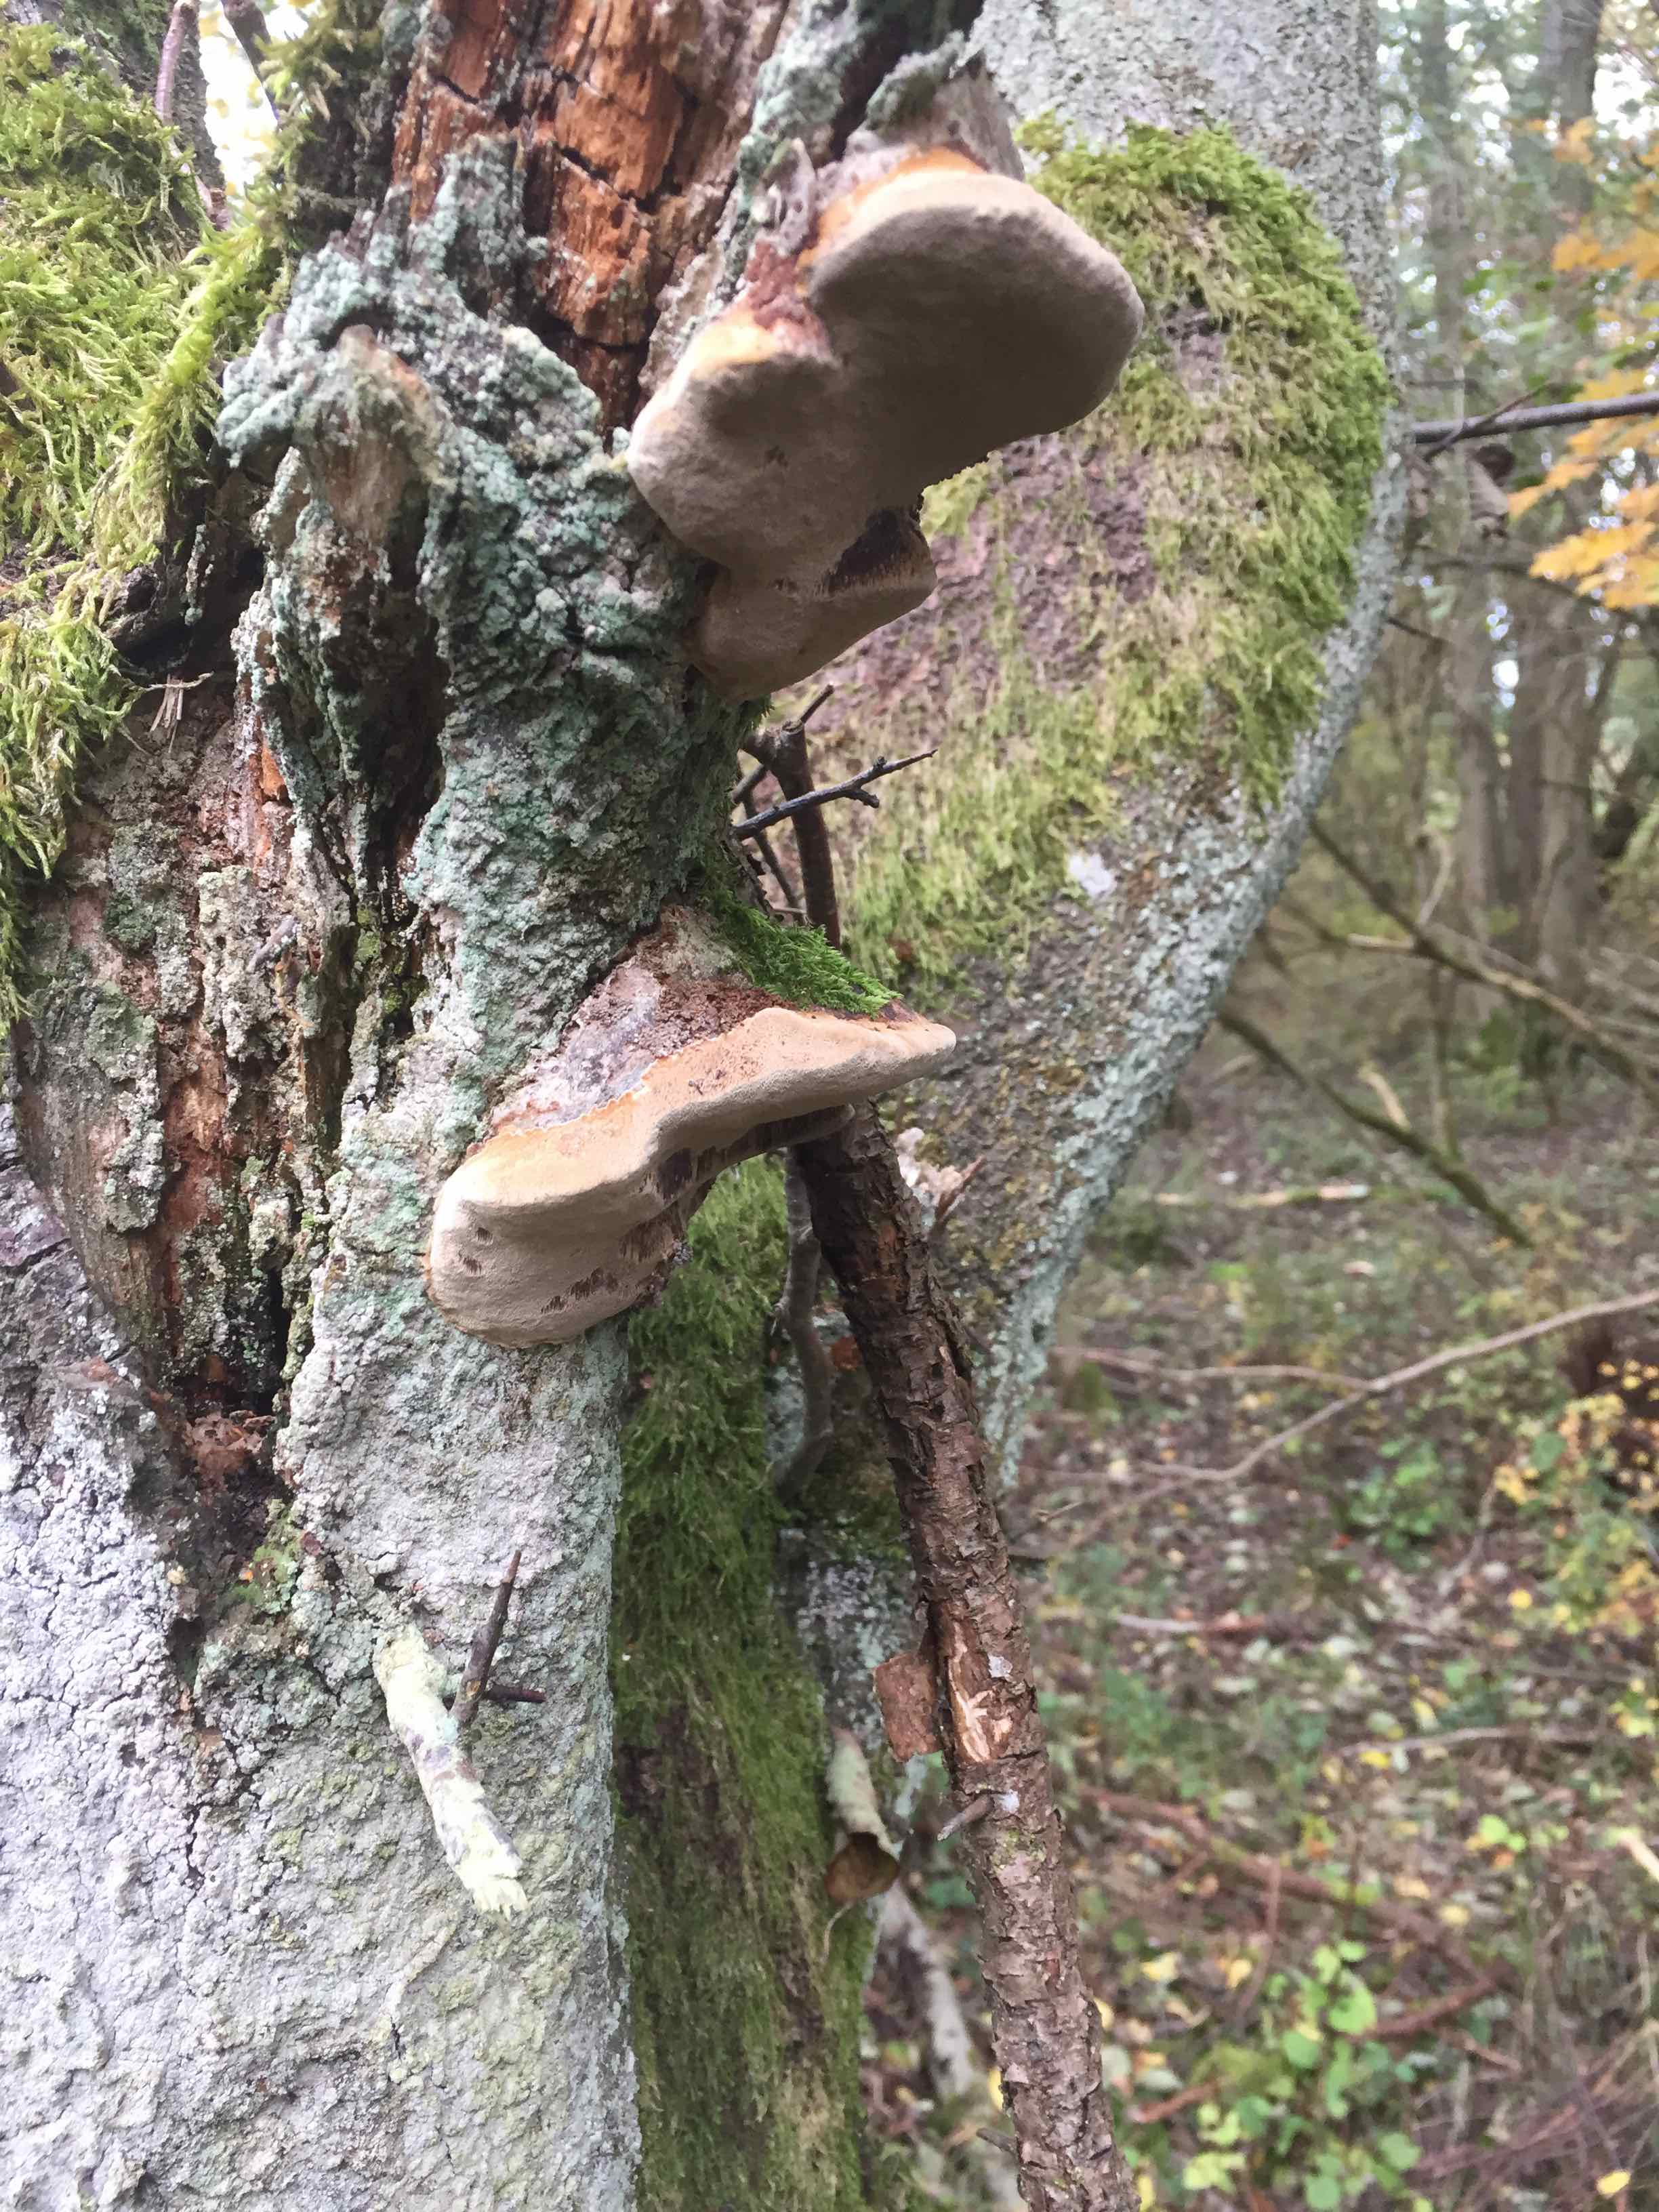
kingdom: Fungi
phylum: Basidiomycota
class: Agaricomycetes
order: Hymenochaetales
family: Hymenochaetaceae
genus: Phellinus
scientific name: Phellinus pomaceus
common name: blomme-ildporesvamp
